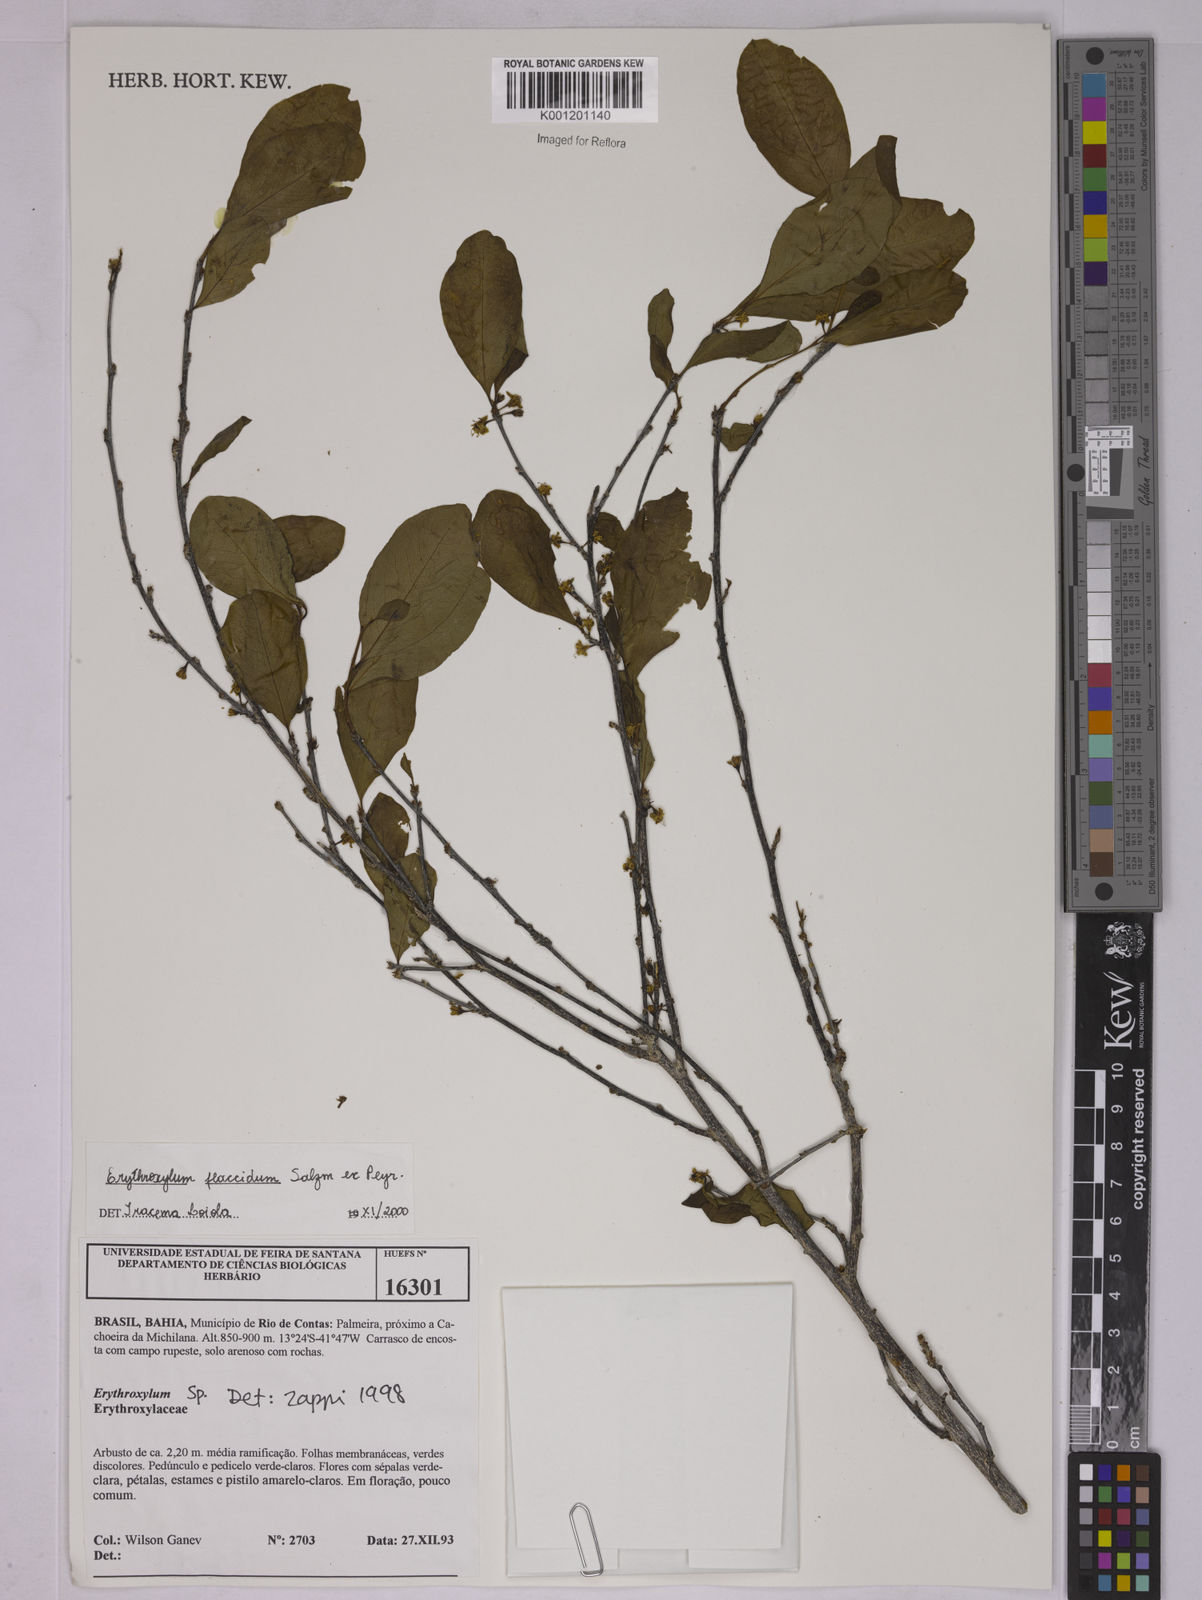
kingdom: Plantae
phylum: Tracheophyta
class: Magnoliopsida
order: Malpighiales
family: Erythroxylaceae
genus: Erythroxylum
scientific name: Erythroxylum flaccidum
